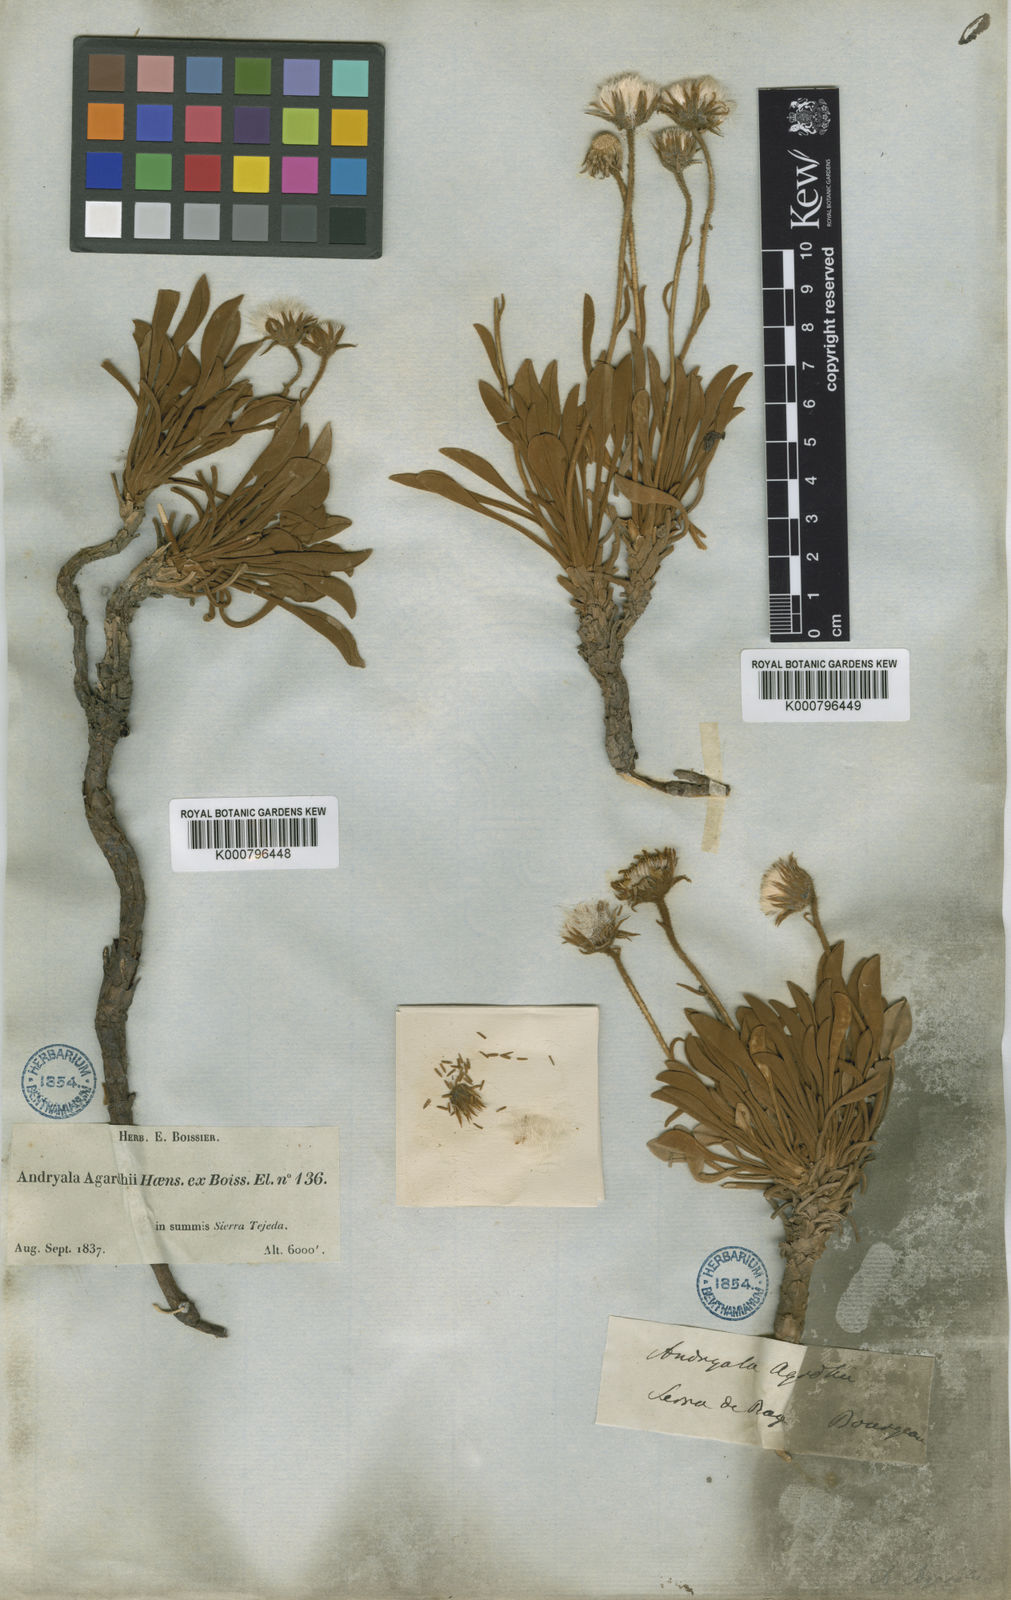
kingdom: Plantae
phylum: Tracheophyta
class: Magnoliopsida
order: Asterales
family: Asteraceae
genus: Andryala
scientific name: Andryala agardhii
